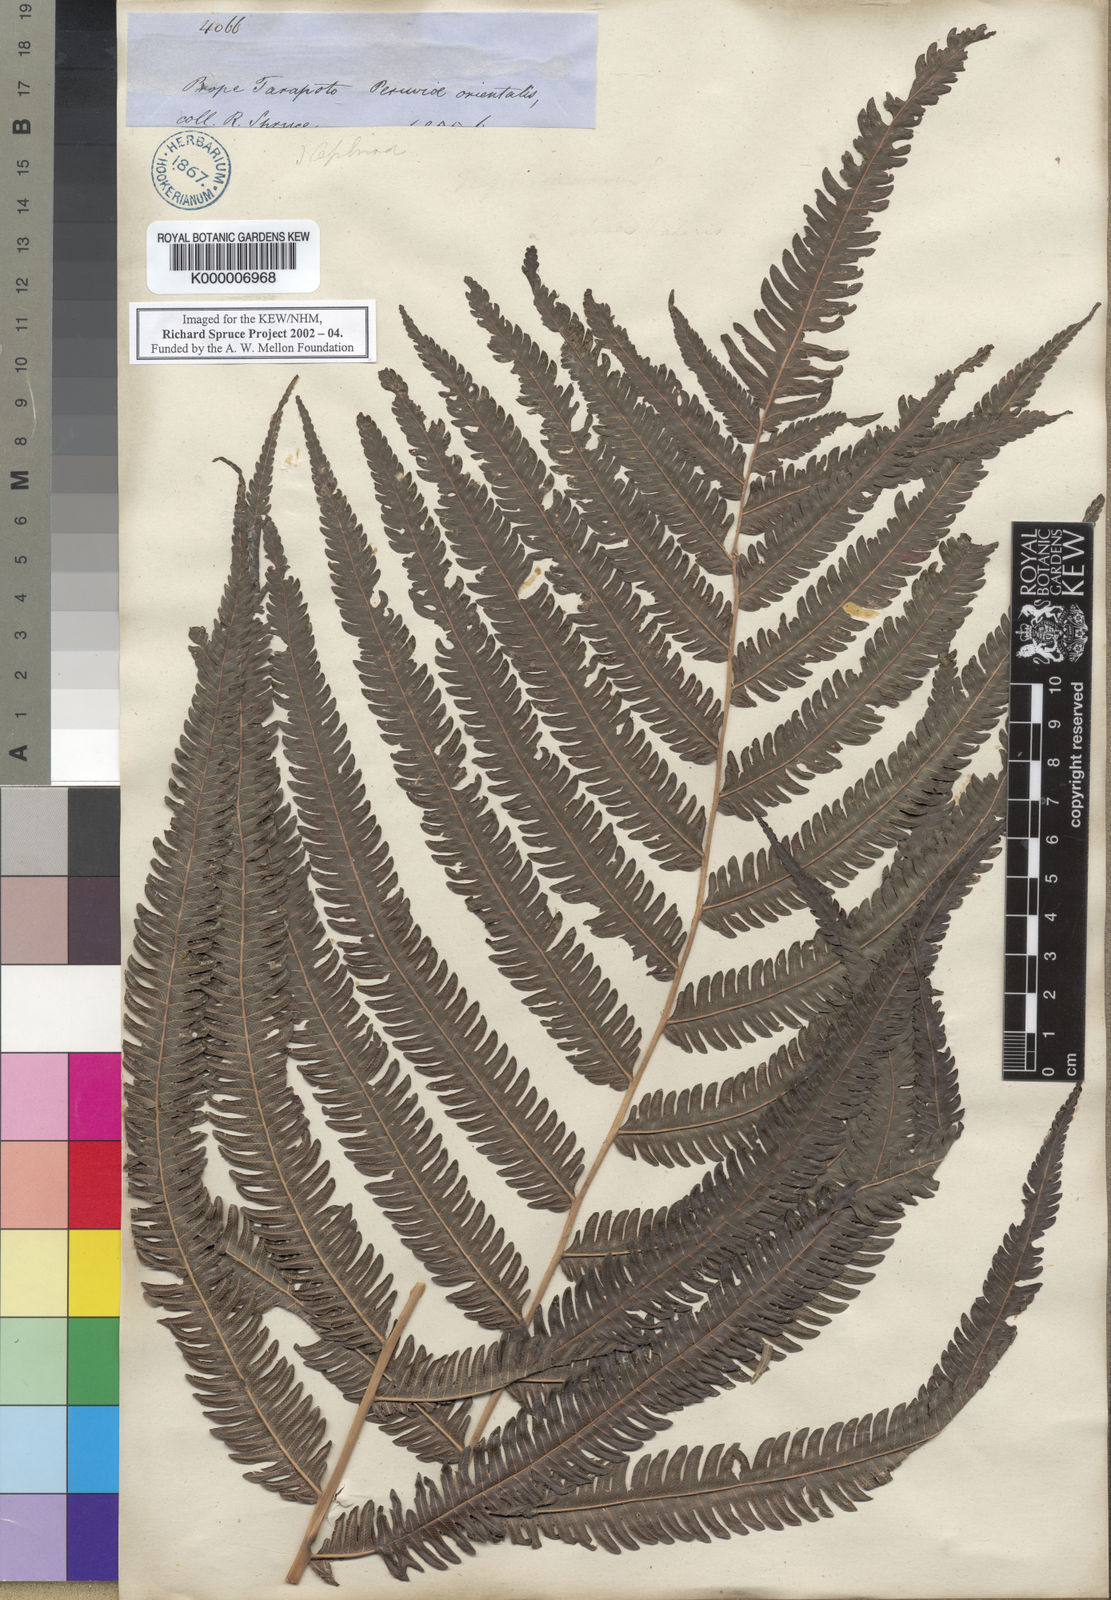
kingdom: Plantae
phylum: Tracheophyta
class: Polypodiopsida
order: Polypodiales
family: Thelypteridaceae
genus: Goniopteris
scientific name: Goniopteris tristis
